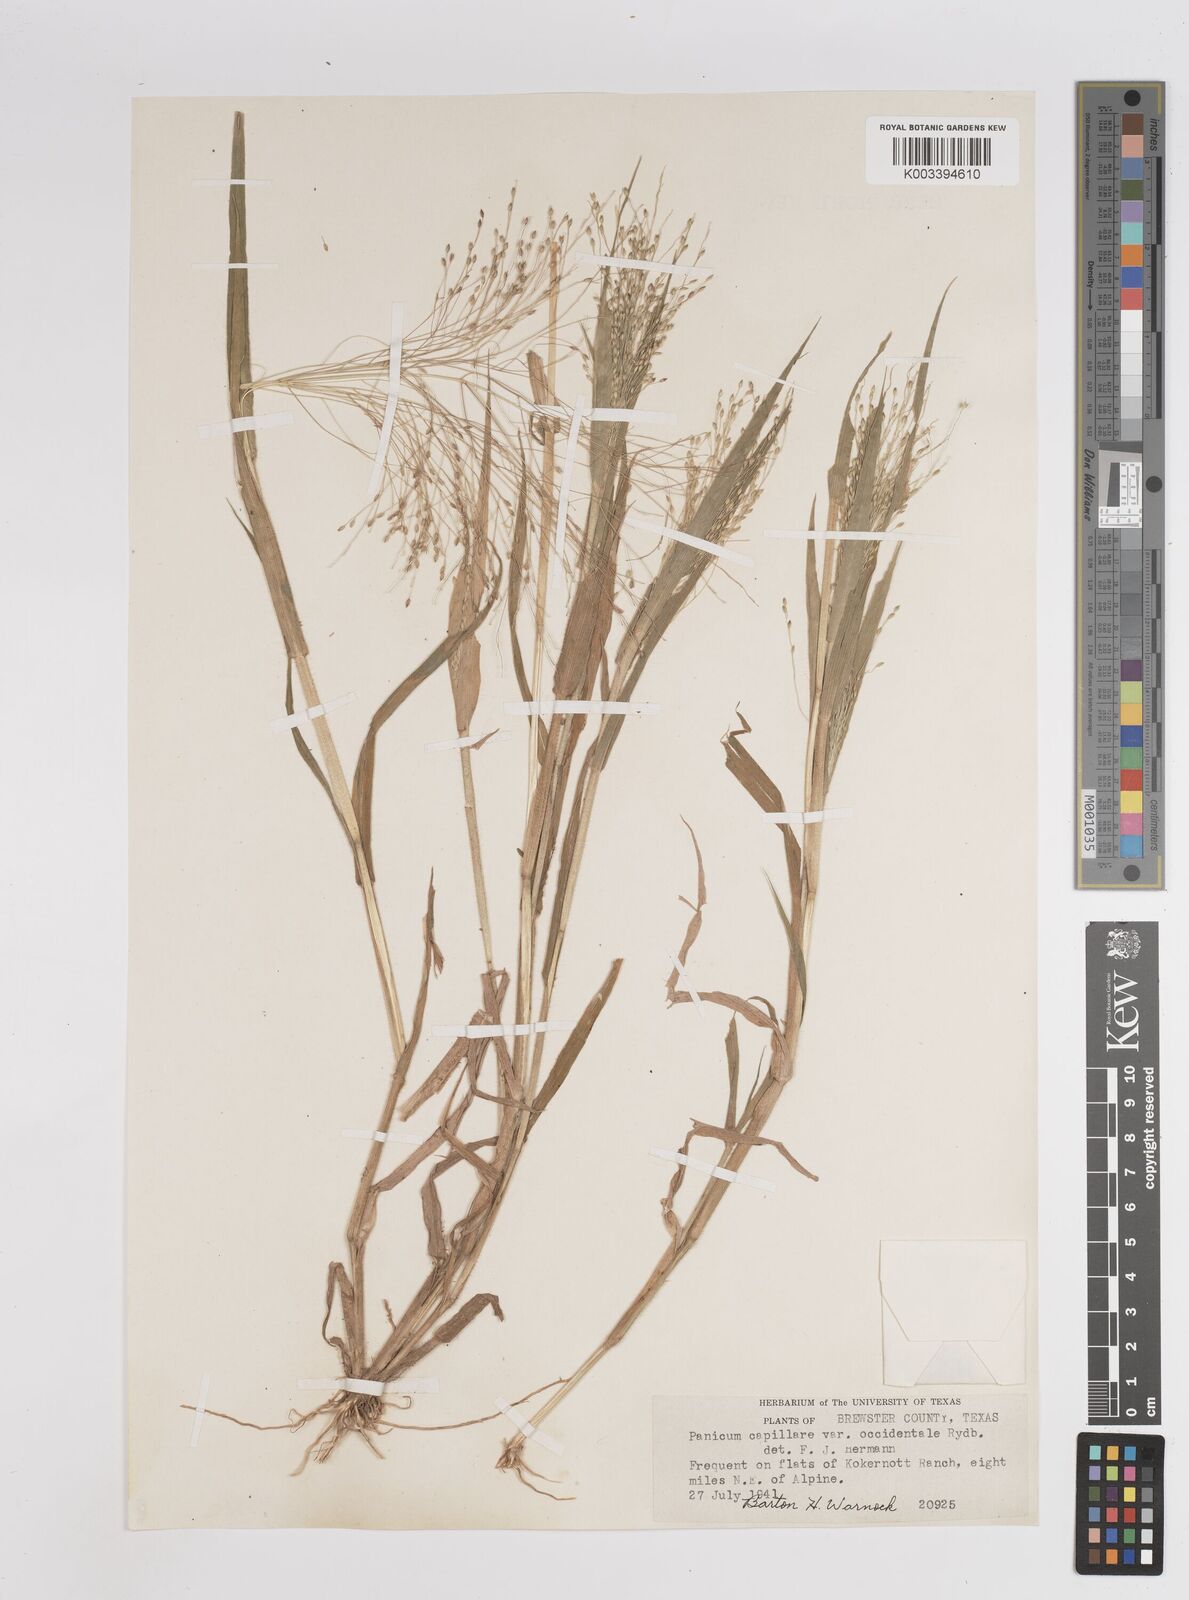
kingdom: Plantae
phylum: Tracheophyta
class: Liliopsida
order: Poales
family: Poaceae
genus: Panicum
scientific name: Panicum capillare
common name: Witch-grass
